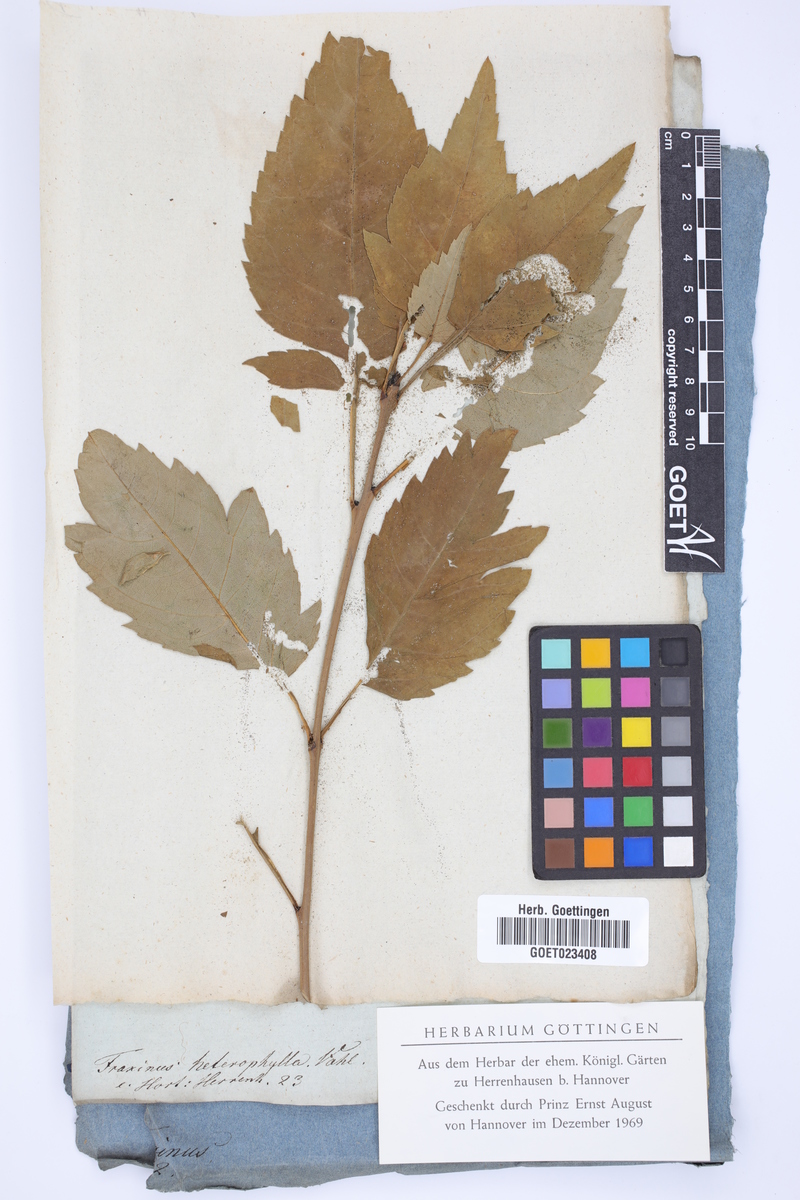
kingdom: Plantae
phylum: Tracheophyta
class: Magnoliopsida
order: Lamiales
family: Oleaceae
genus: Fraxinus
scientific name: Fraxinus excelsior
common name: European ash
